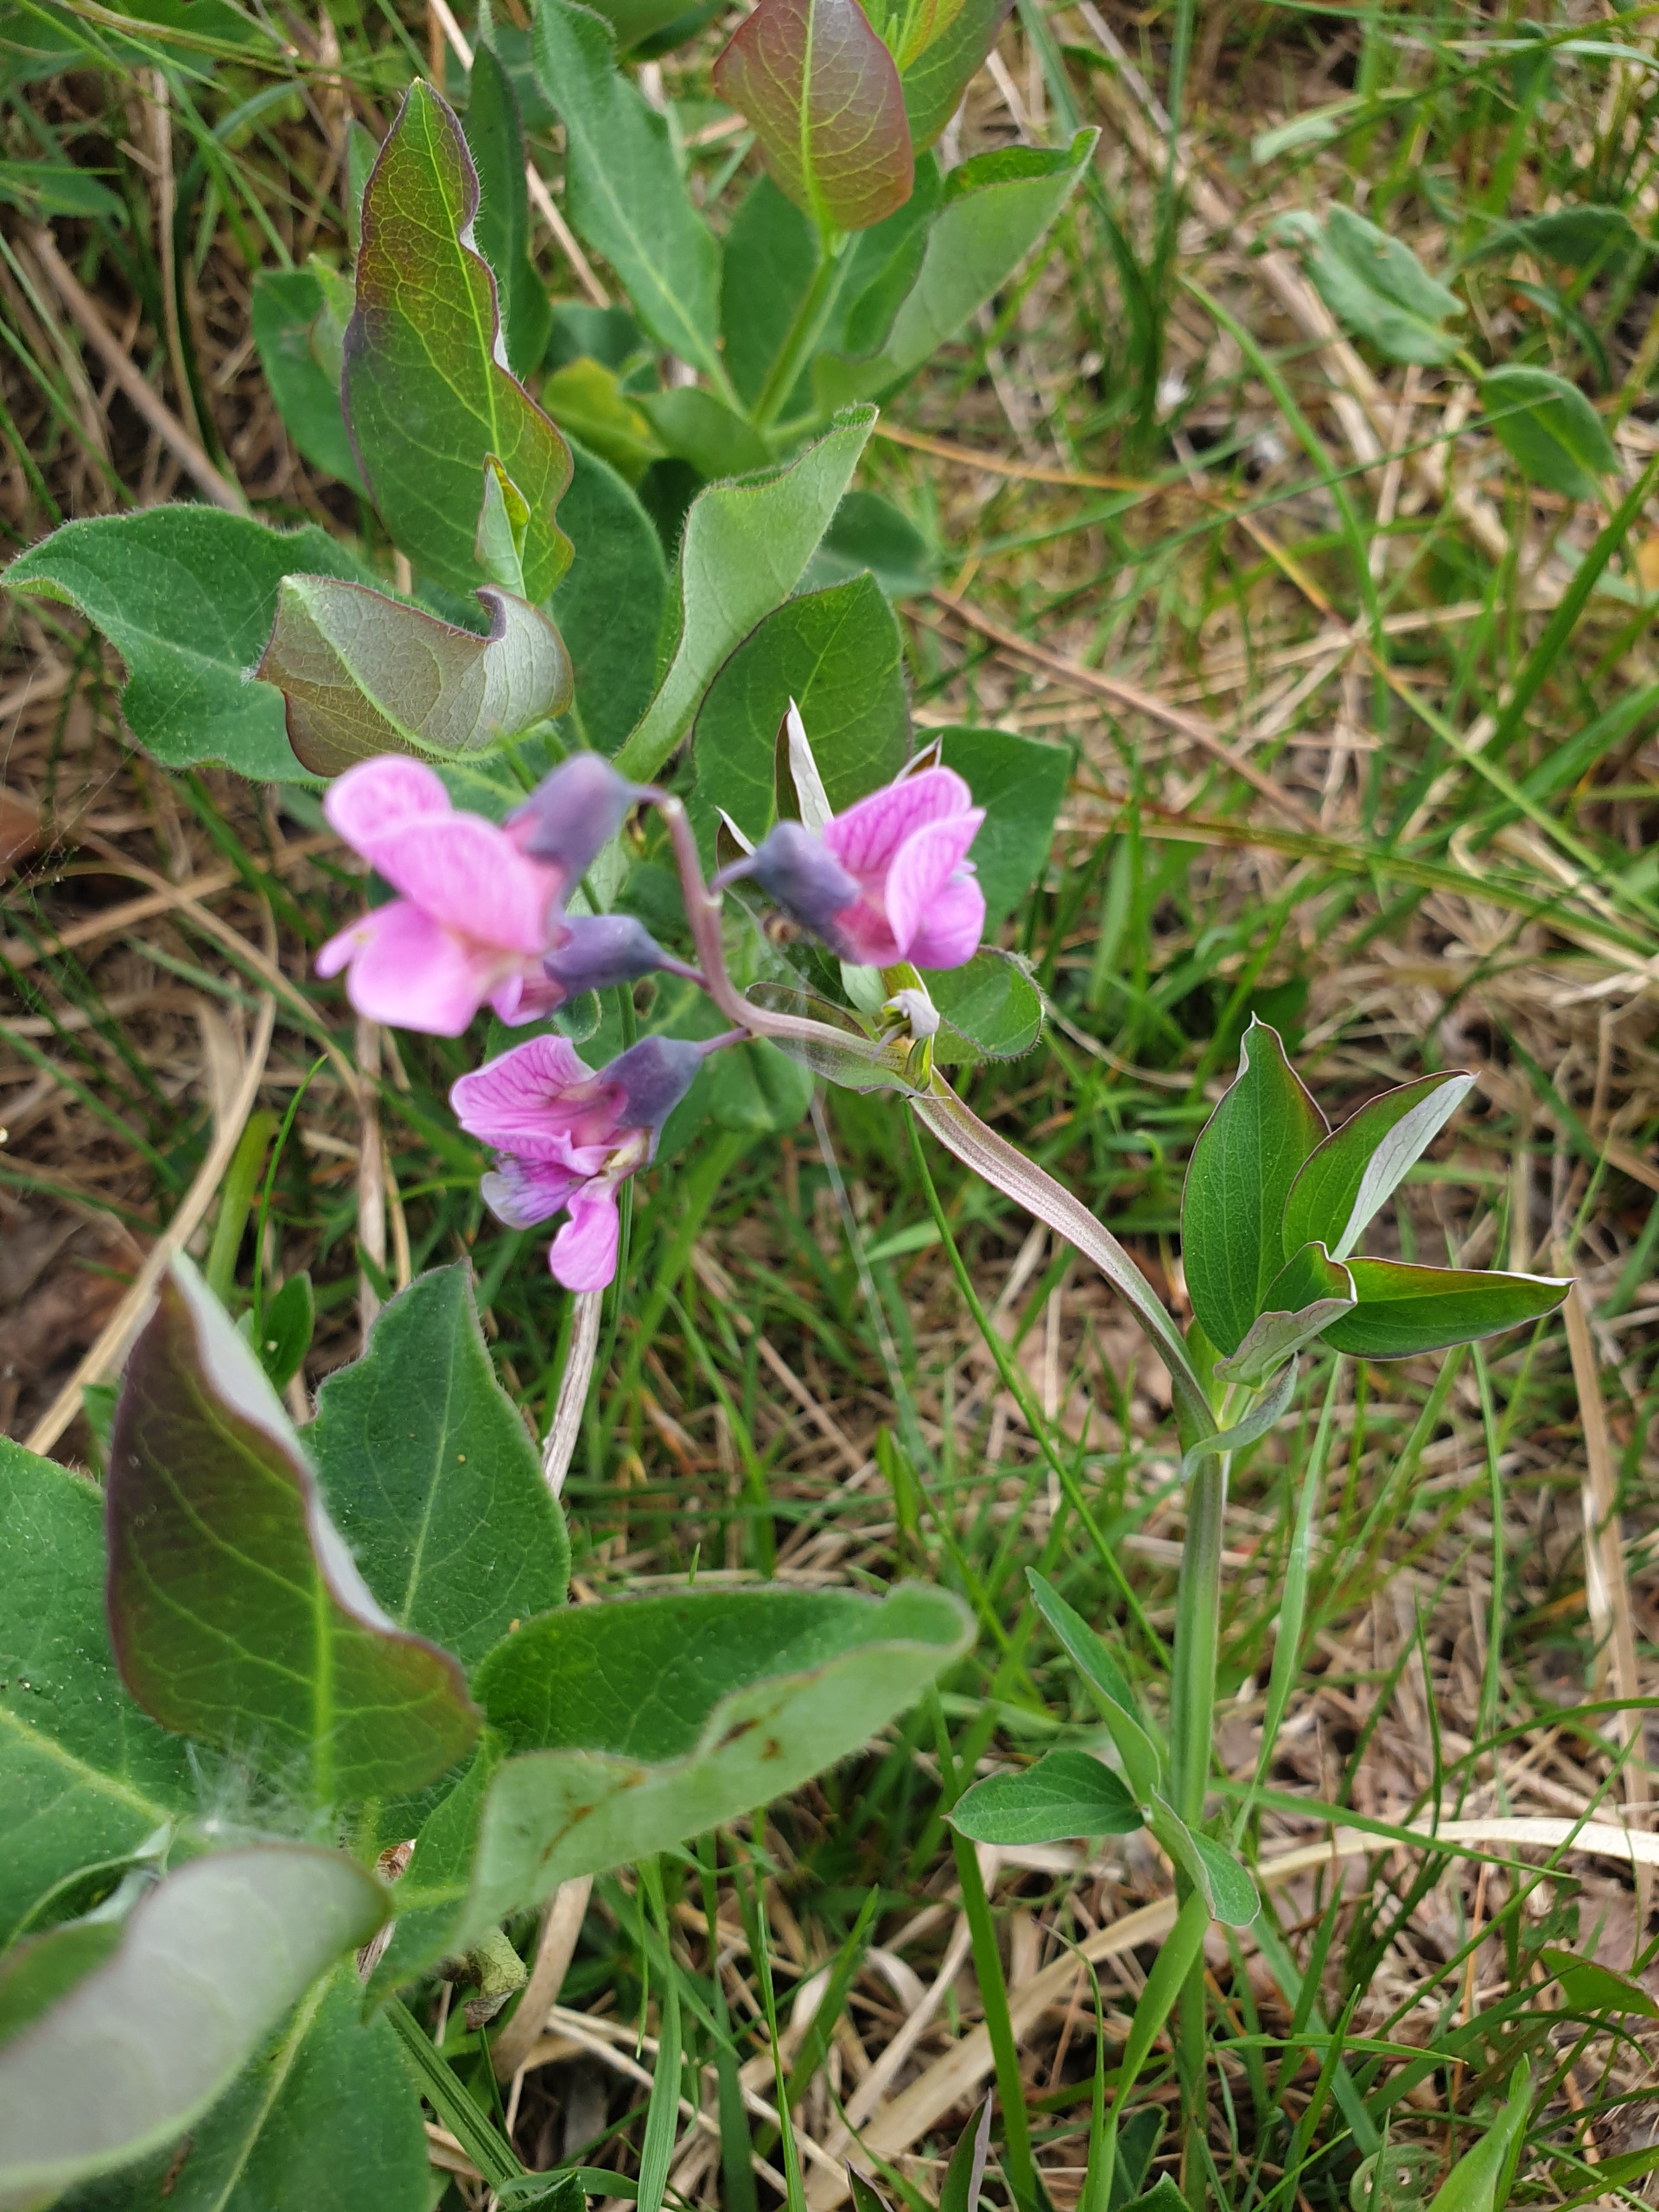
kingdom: Plantae
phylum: Tracheophyta
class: Magnoliopsida
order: Fabales
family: Fabaceae
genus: Lathyrus
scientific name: Lathyrus linifolius
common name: Krat-fladbælg
